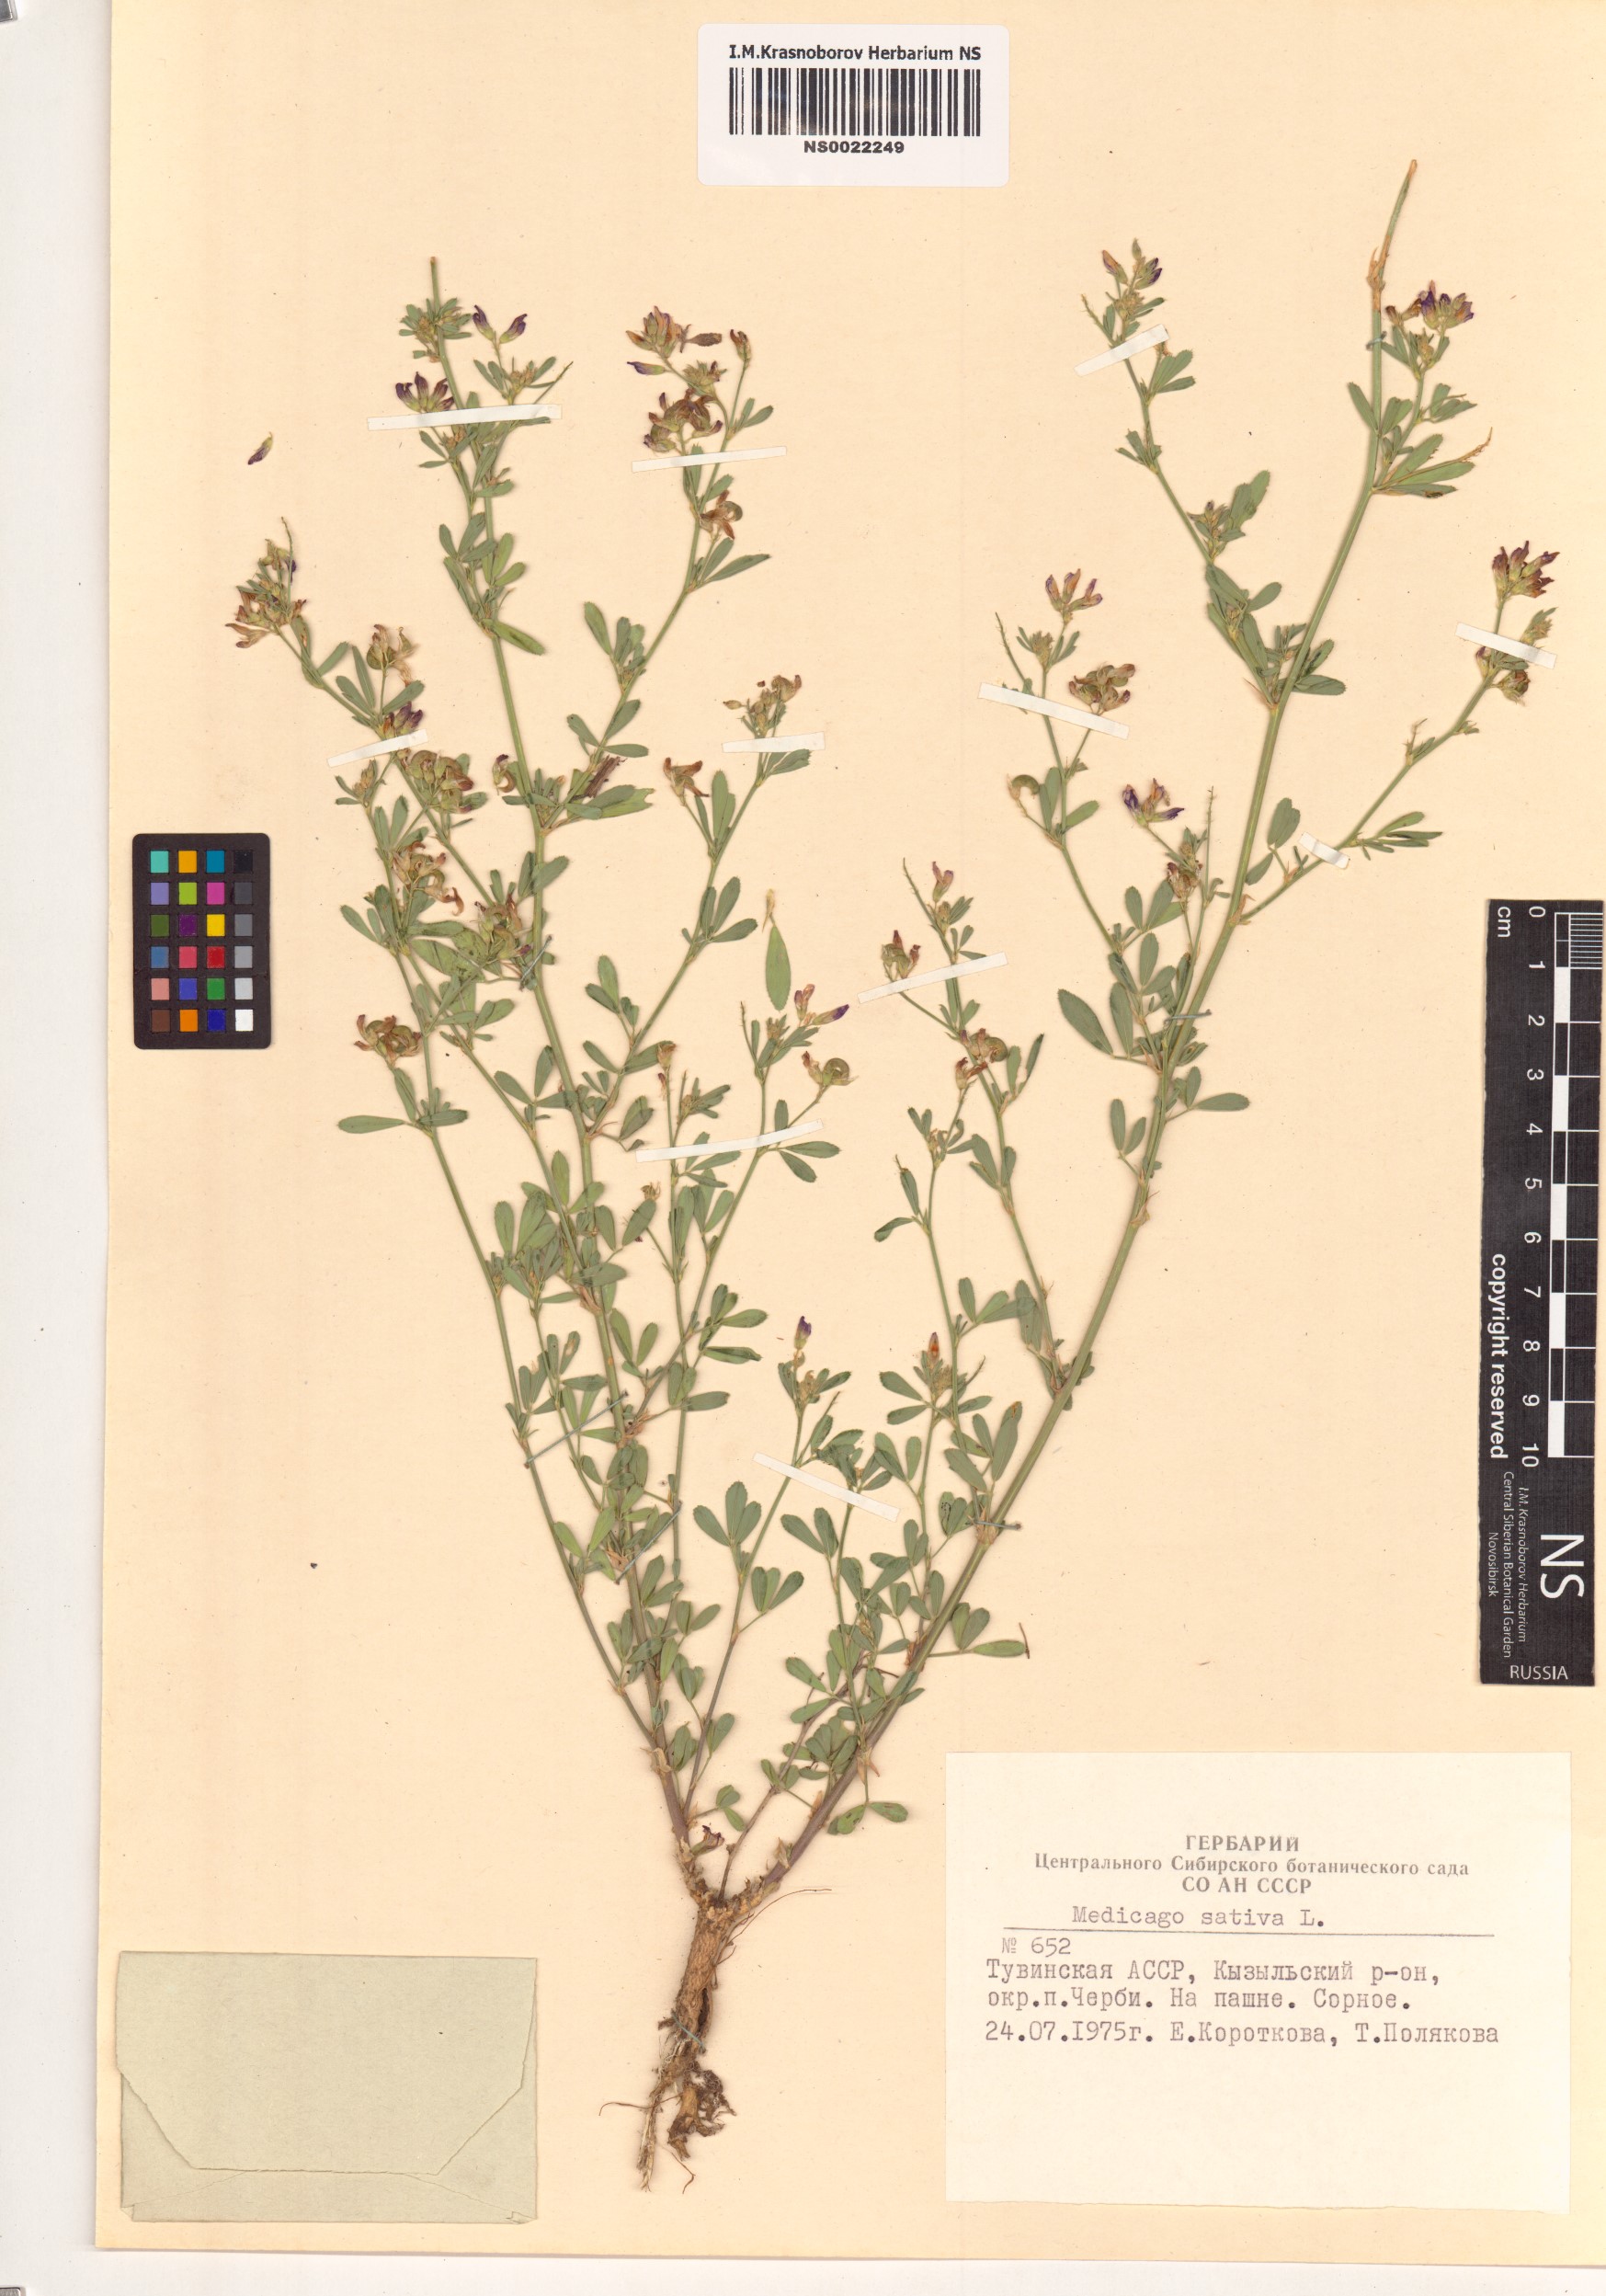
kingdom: Plantae
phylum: Tracheophyta
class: Magnoliopsida
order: Fabales
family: Fabaceae
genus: Medicago
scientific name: Medicago sativa
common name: Alfalfa
